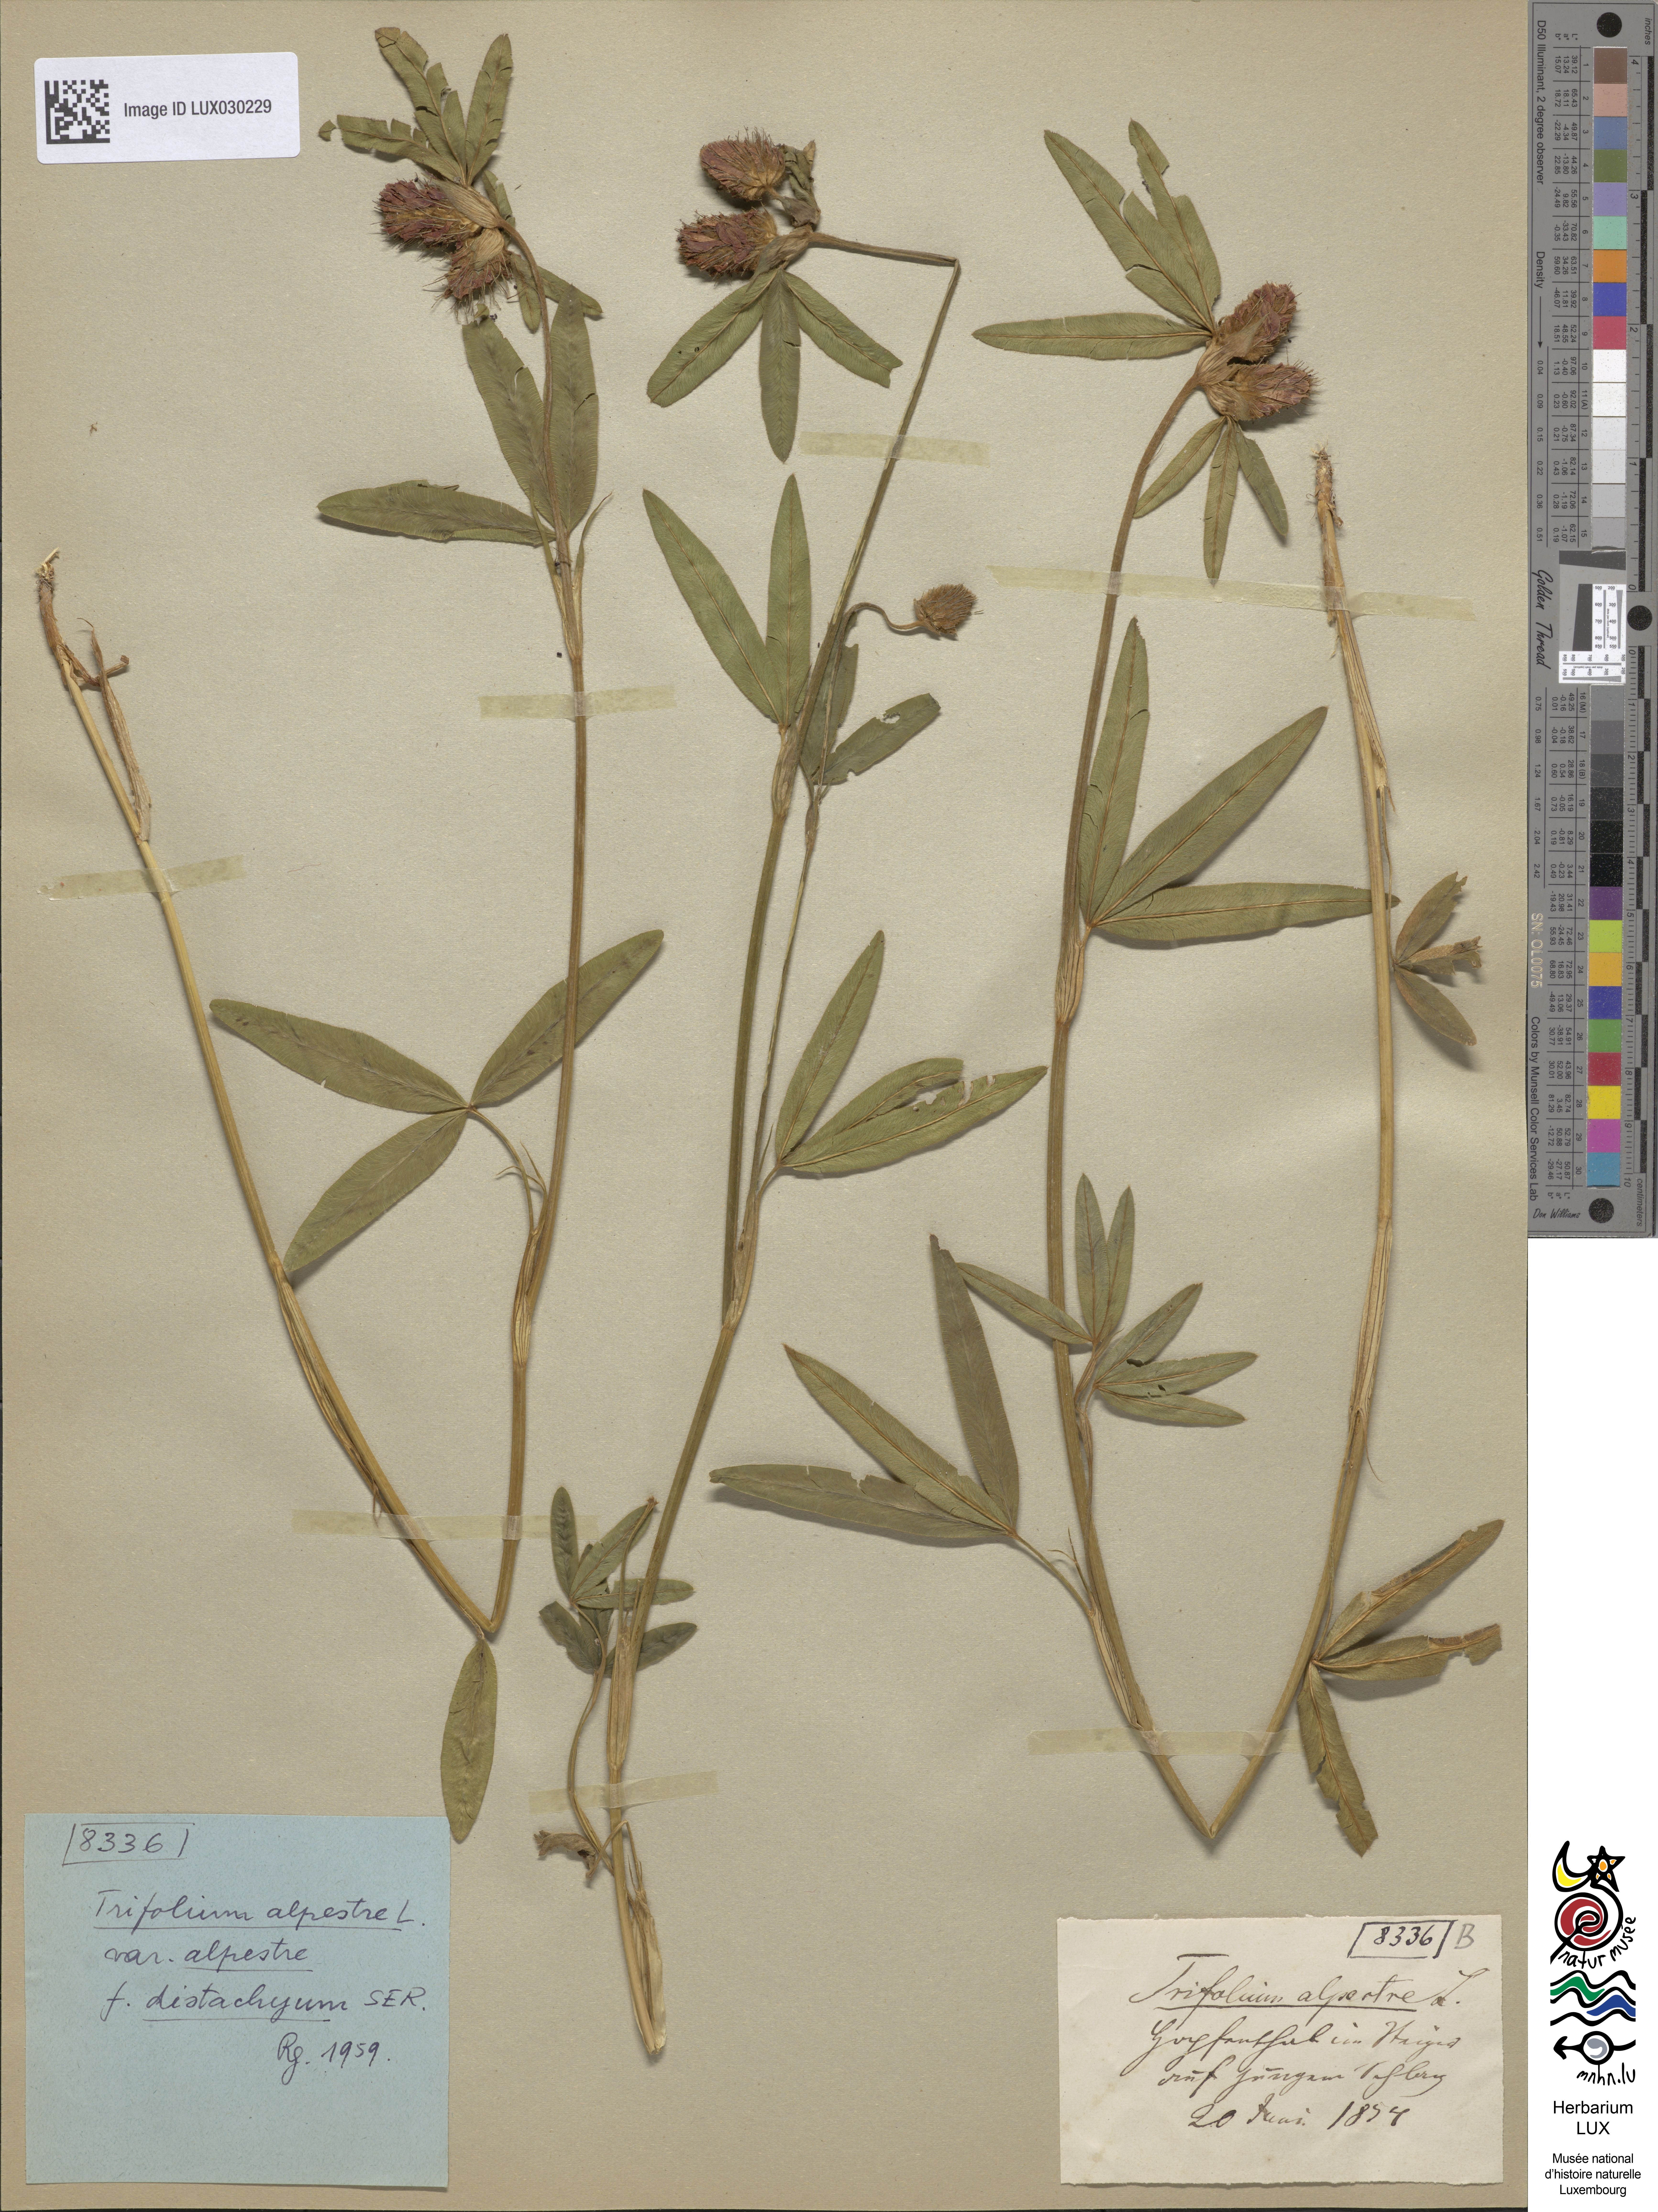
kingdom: Plantae
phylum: Tracheophyta
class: Magnoliopsida
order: Fabales
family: Fabaceae
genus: Trifolium
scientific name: Trifolium alpestre
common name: Owl-head clover
